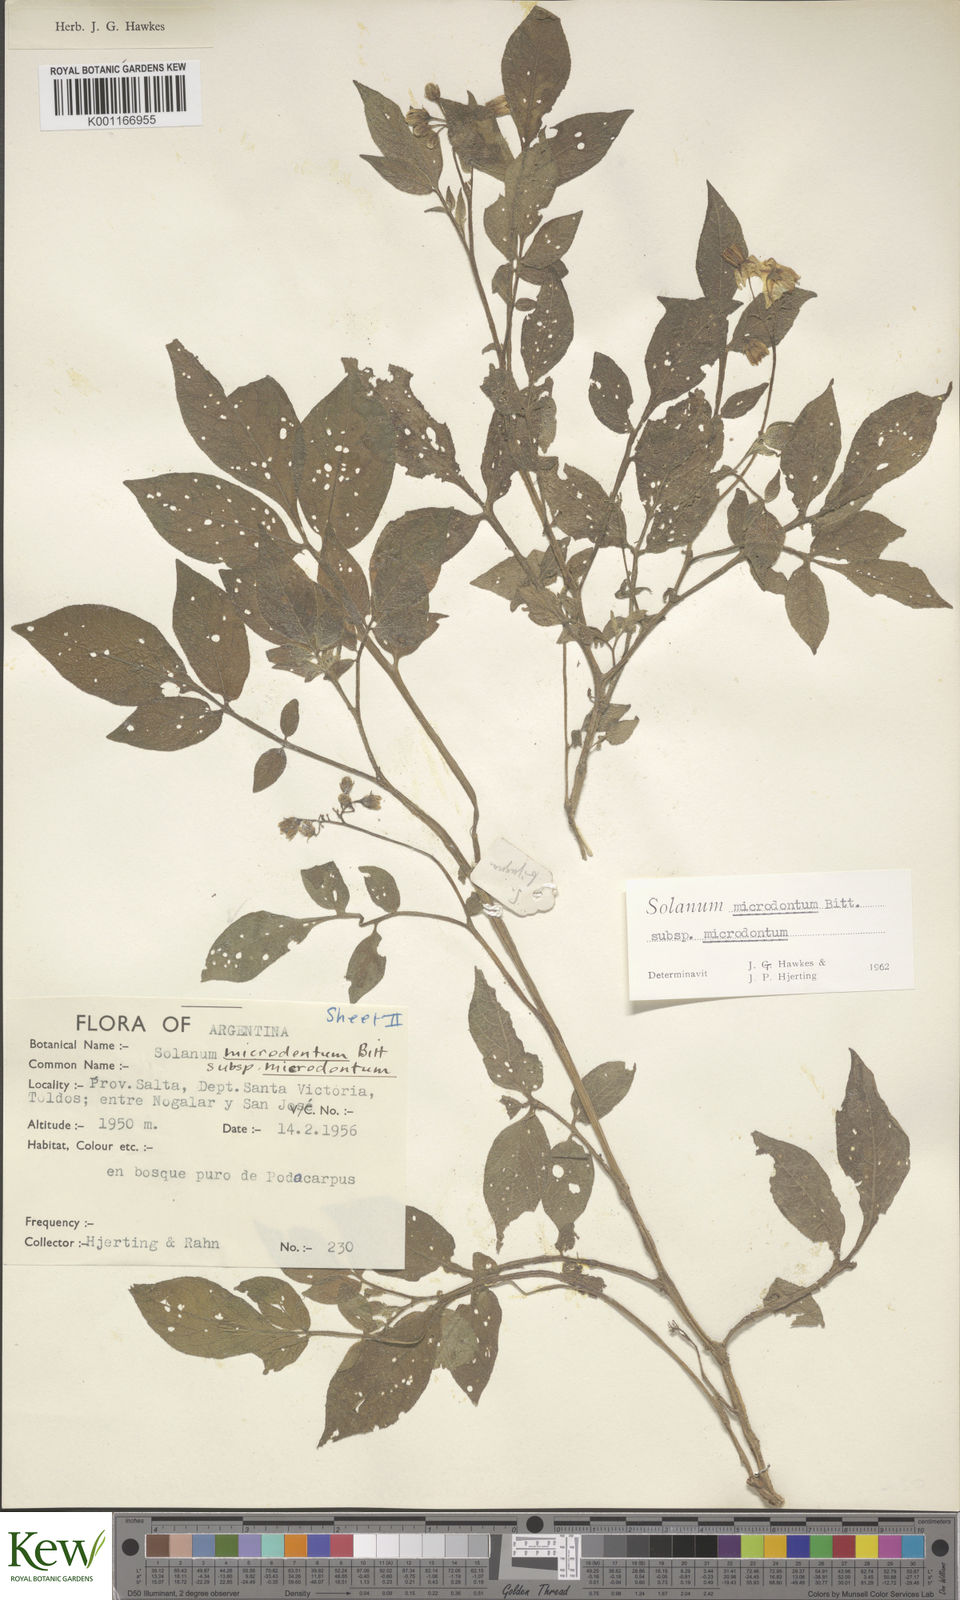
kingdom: Plantae
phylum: Tracheophyta
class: Magnoliopsida
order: Solanales
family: Solanaceae
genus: Solanum
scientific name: Solanum microdontum
